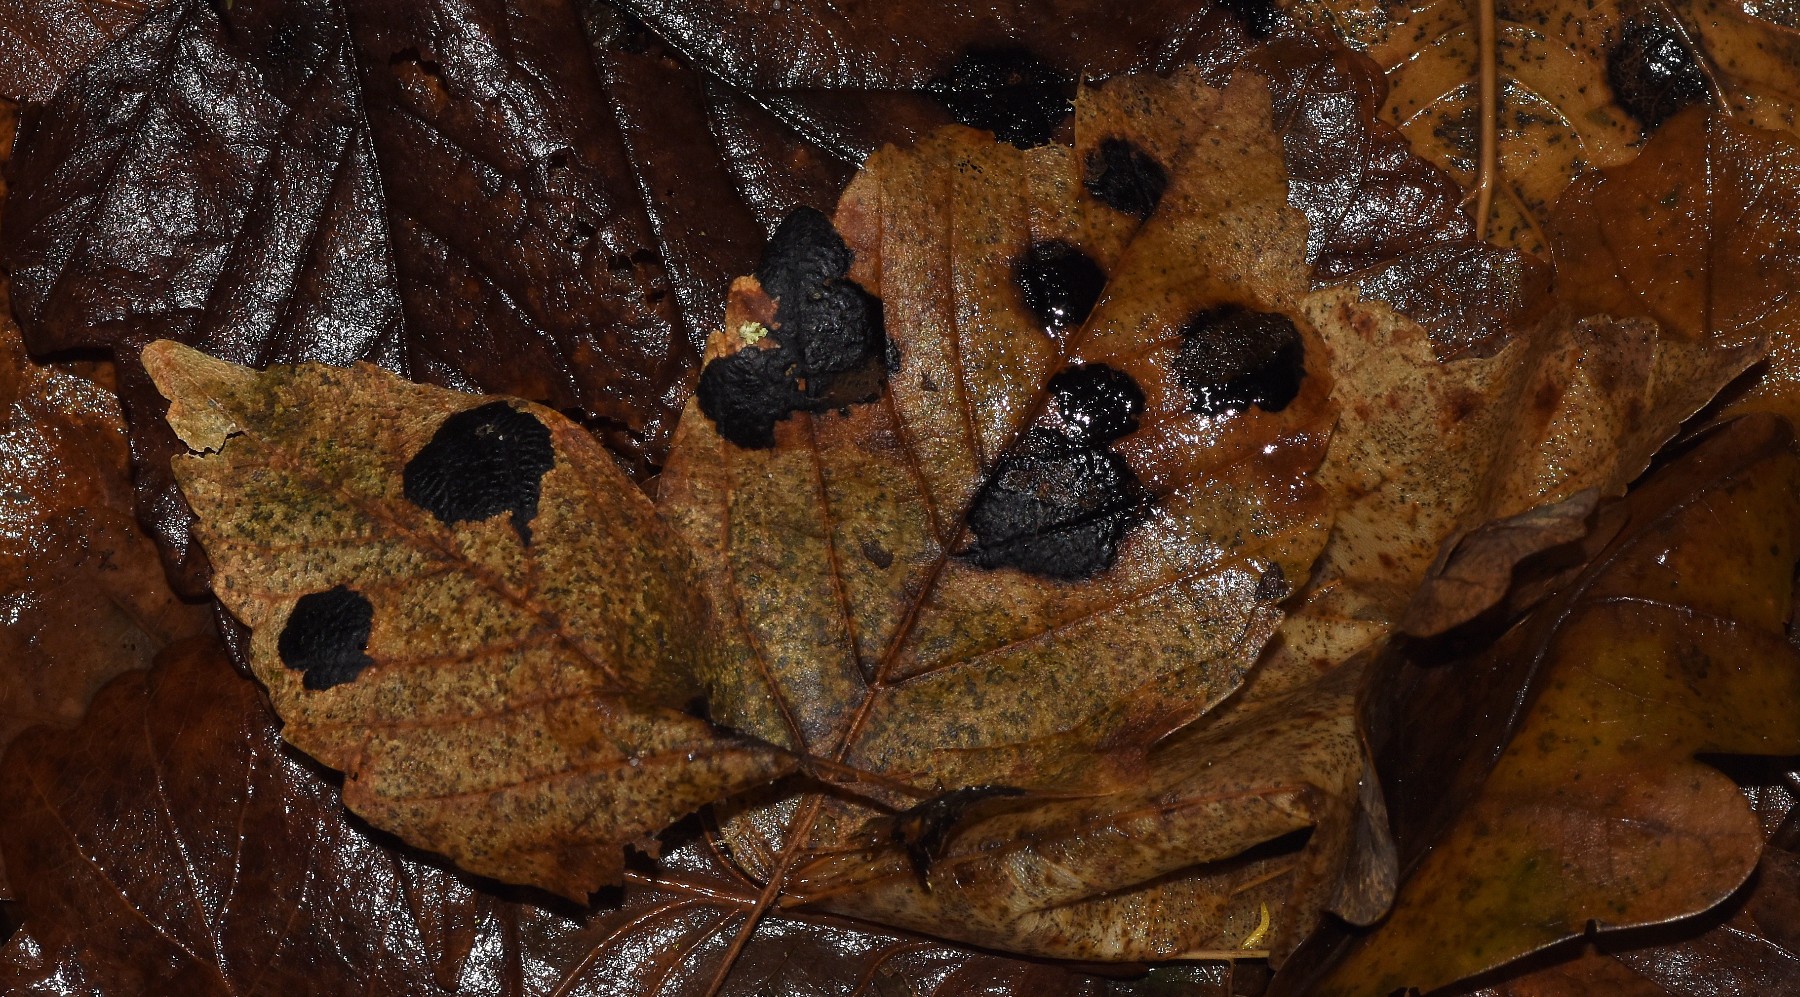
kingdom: Fungi
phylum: Ascomycota
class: Leotiomycetes
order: Rhytismatales
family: Rhytismataceae
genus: Rhytisma
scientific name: Rhytisma acerinum
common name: ahorn-rynkeplet
